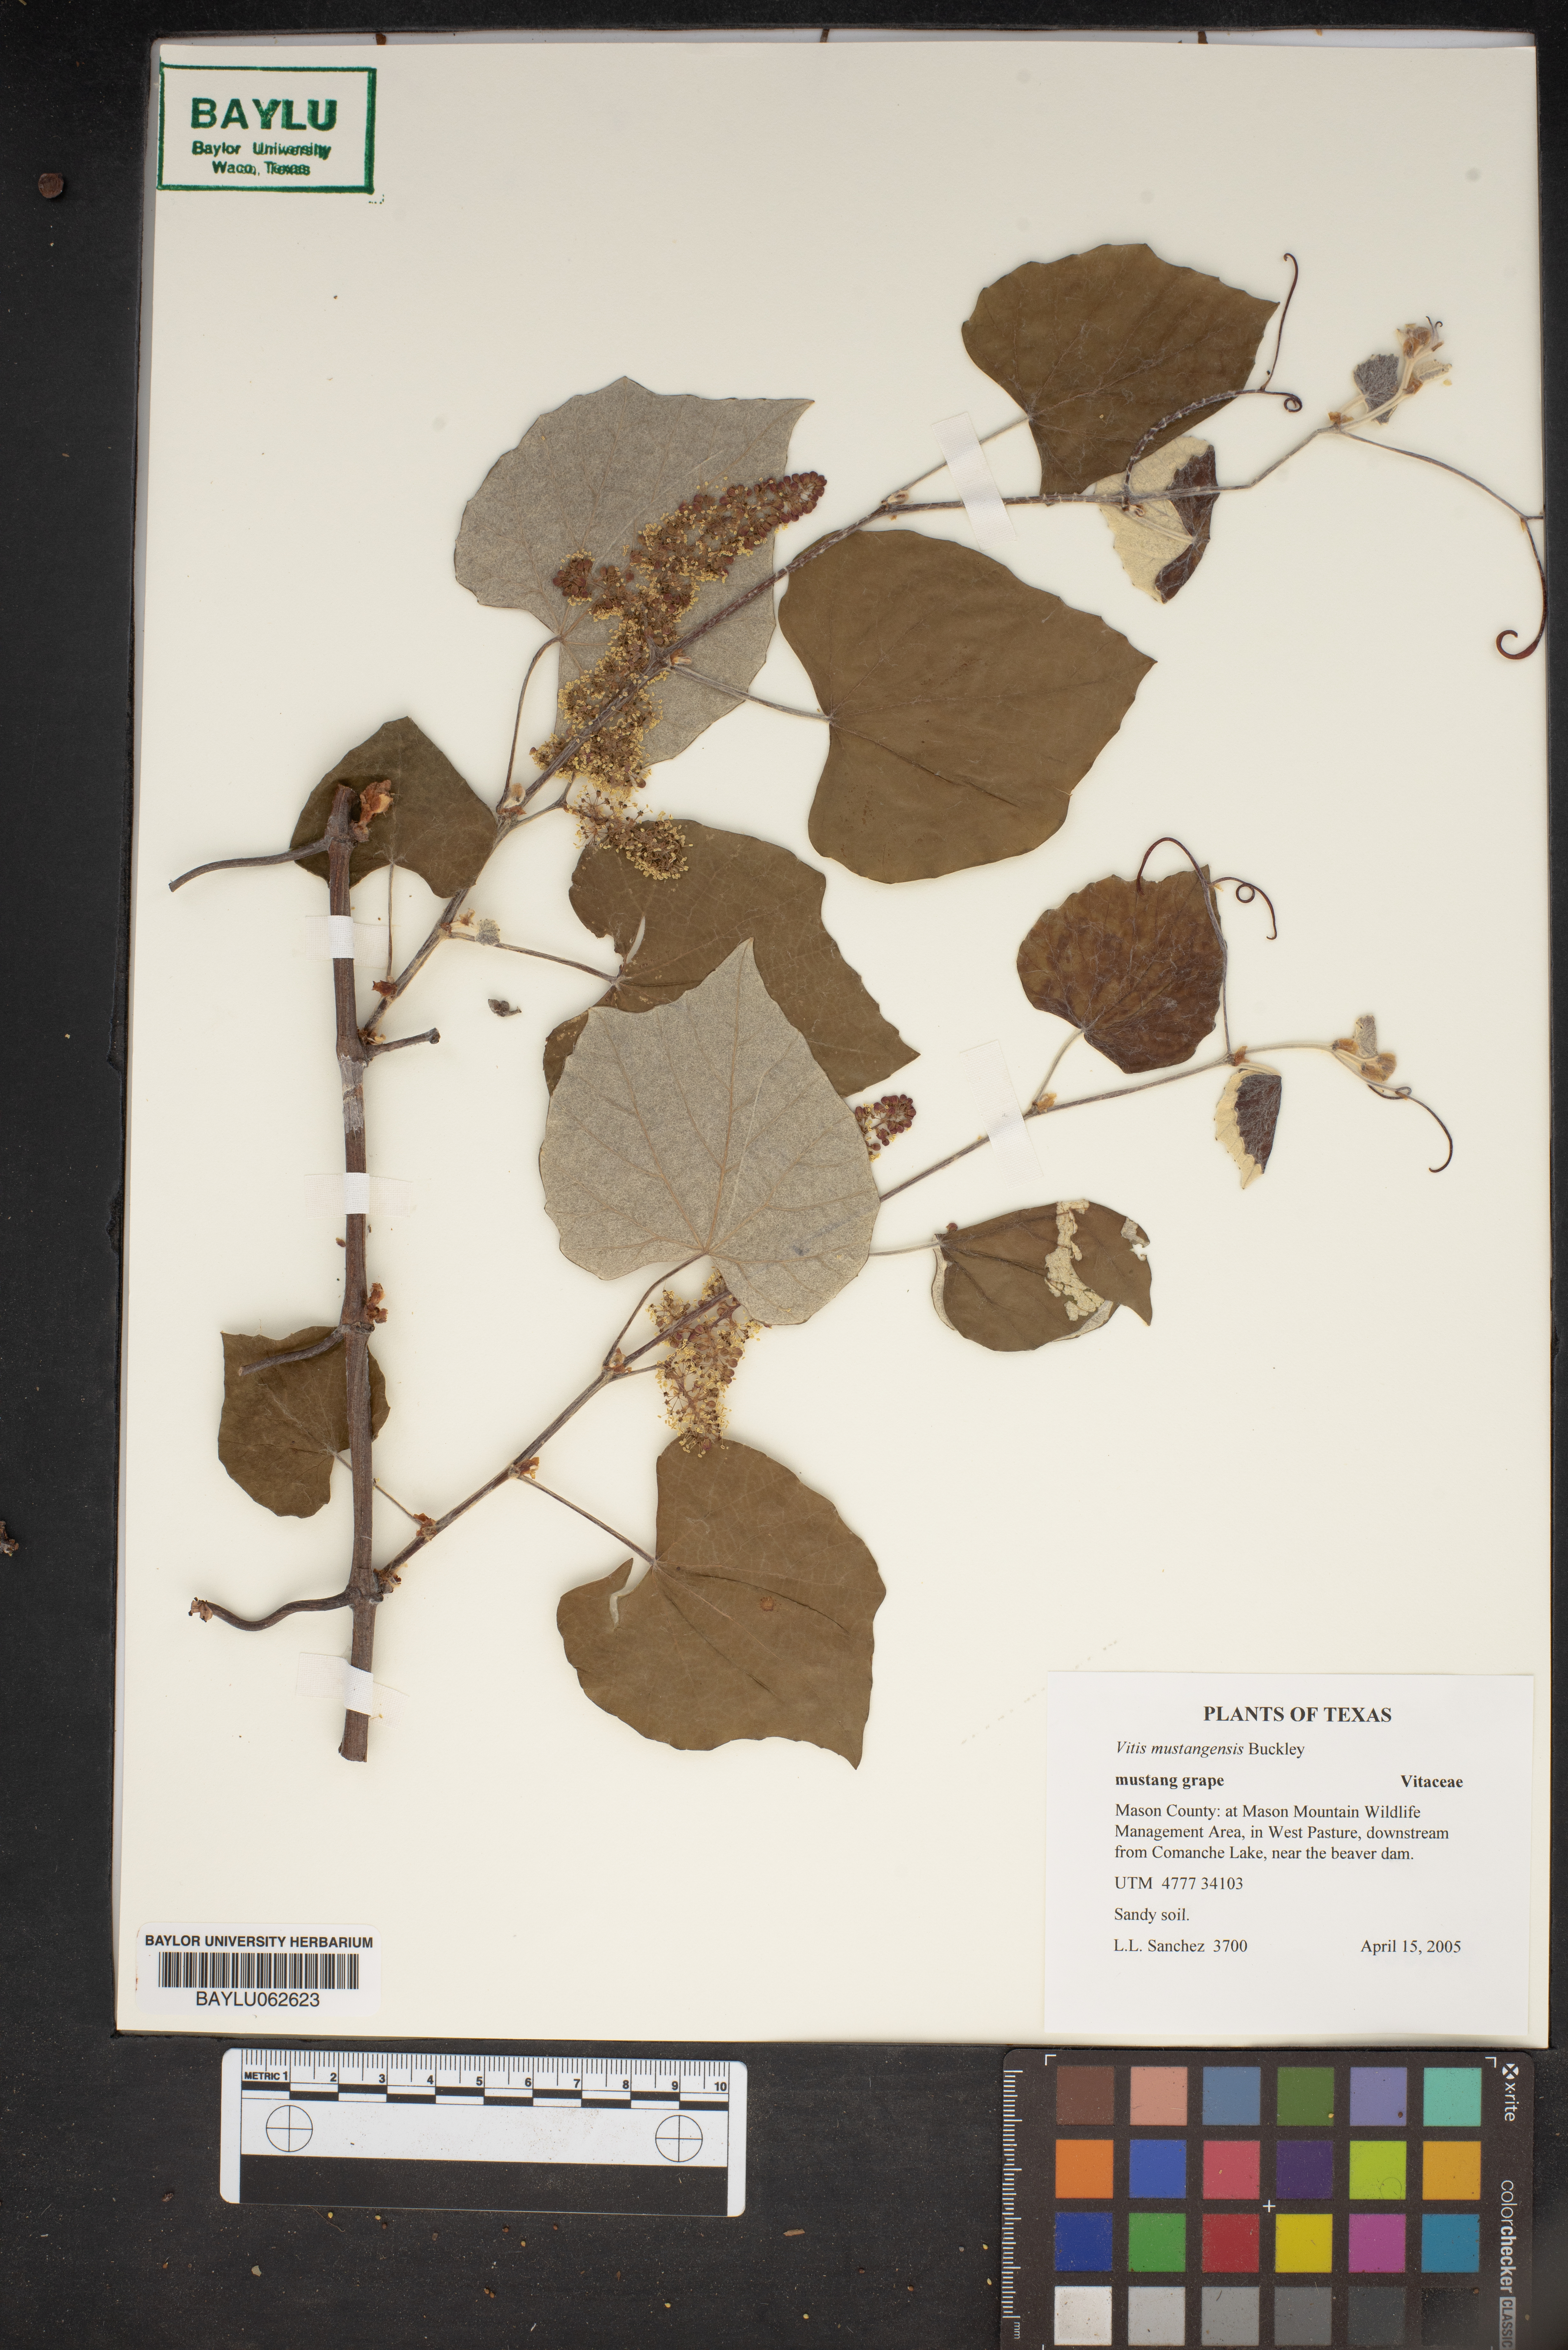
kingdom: Plantae
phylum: Tracheophyta
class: Magnoliopsida
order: Vitales
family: Vitaceae
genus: Vitis
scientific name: Vitis mustangensis
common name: Mustang grape
